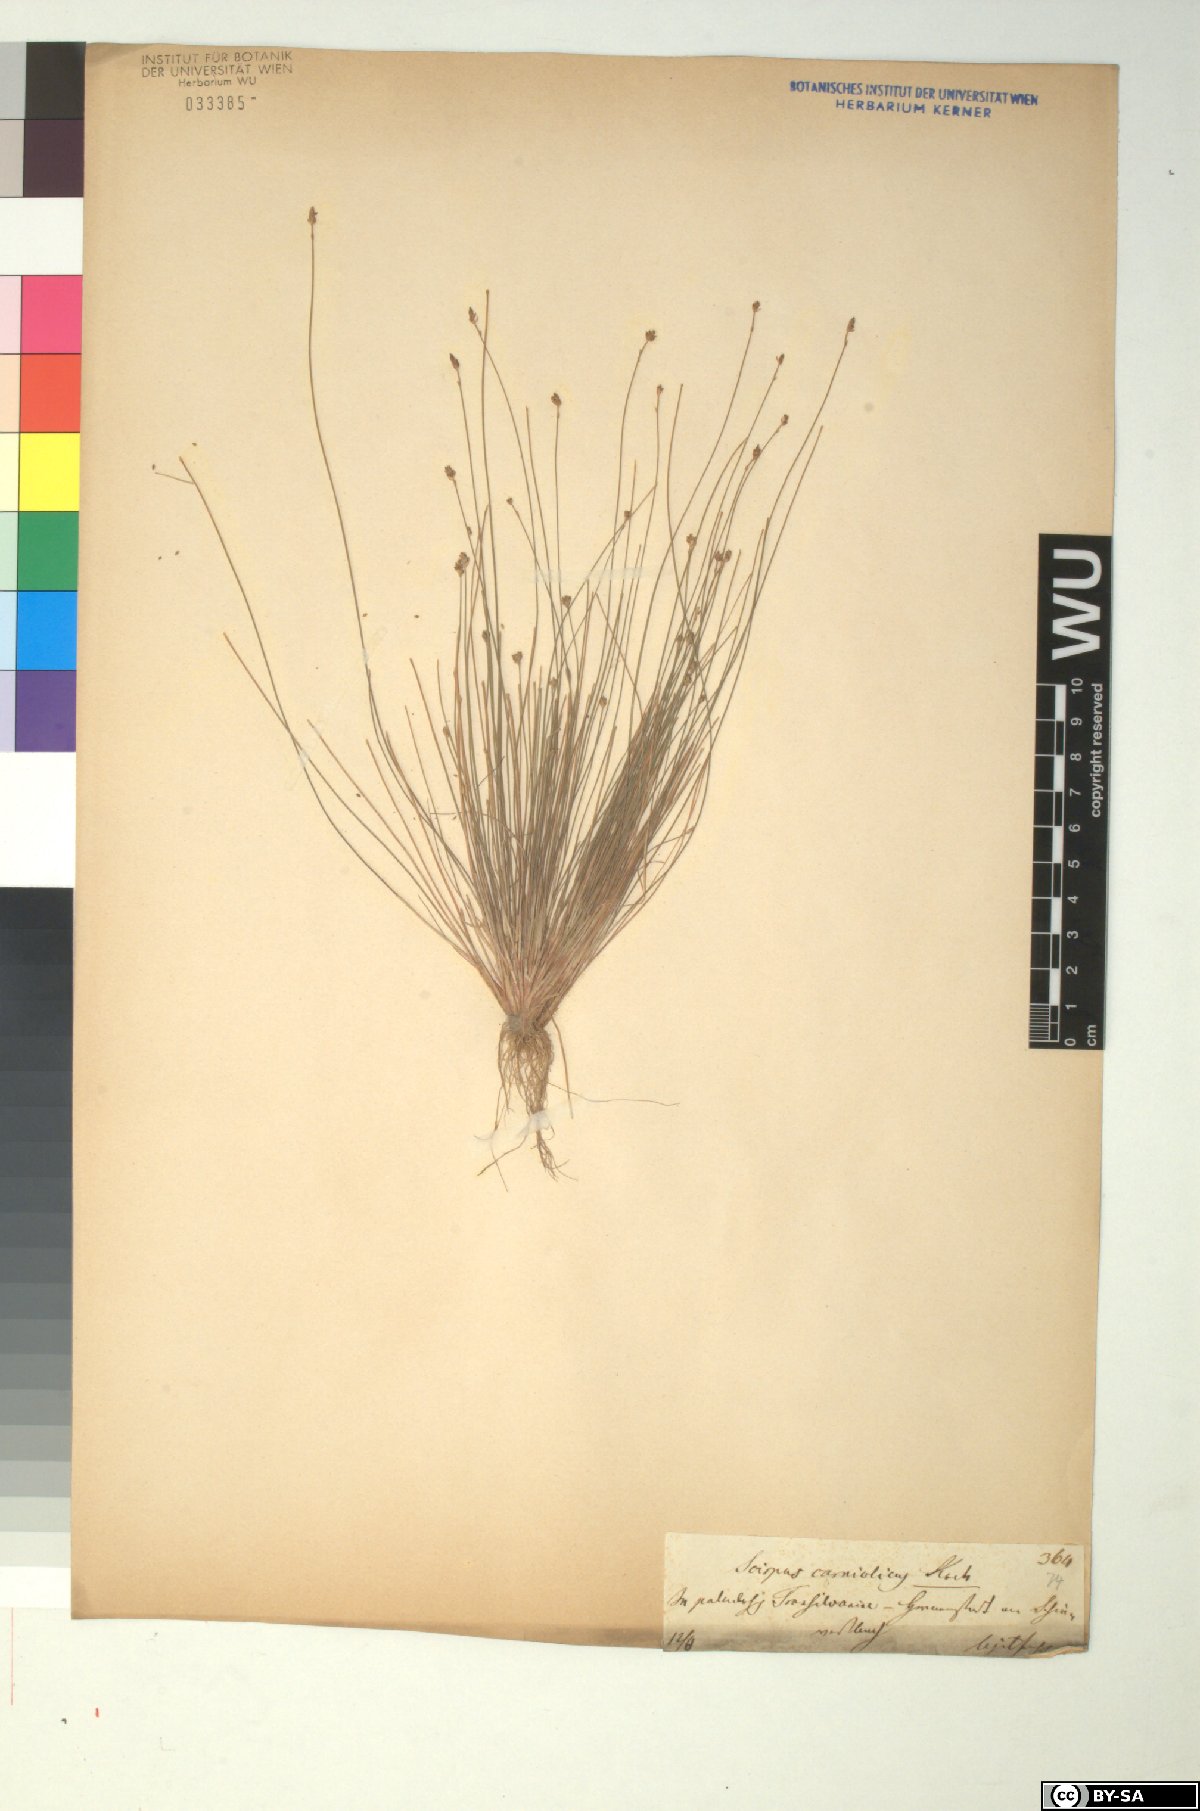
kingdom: Plantae
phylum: Tracheophyta
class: Liliopsida
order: Poales
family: Cyperaceae
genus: Eleocharis
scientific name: Eleocharis carniolica
